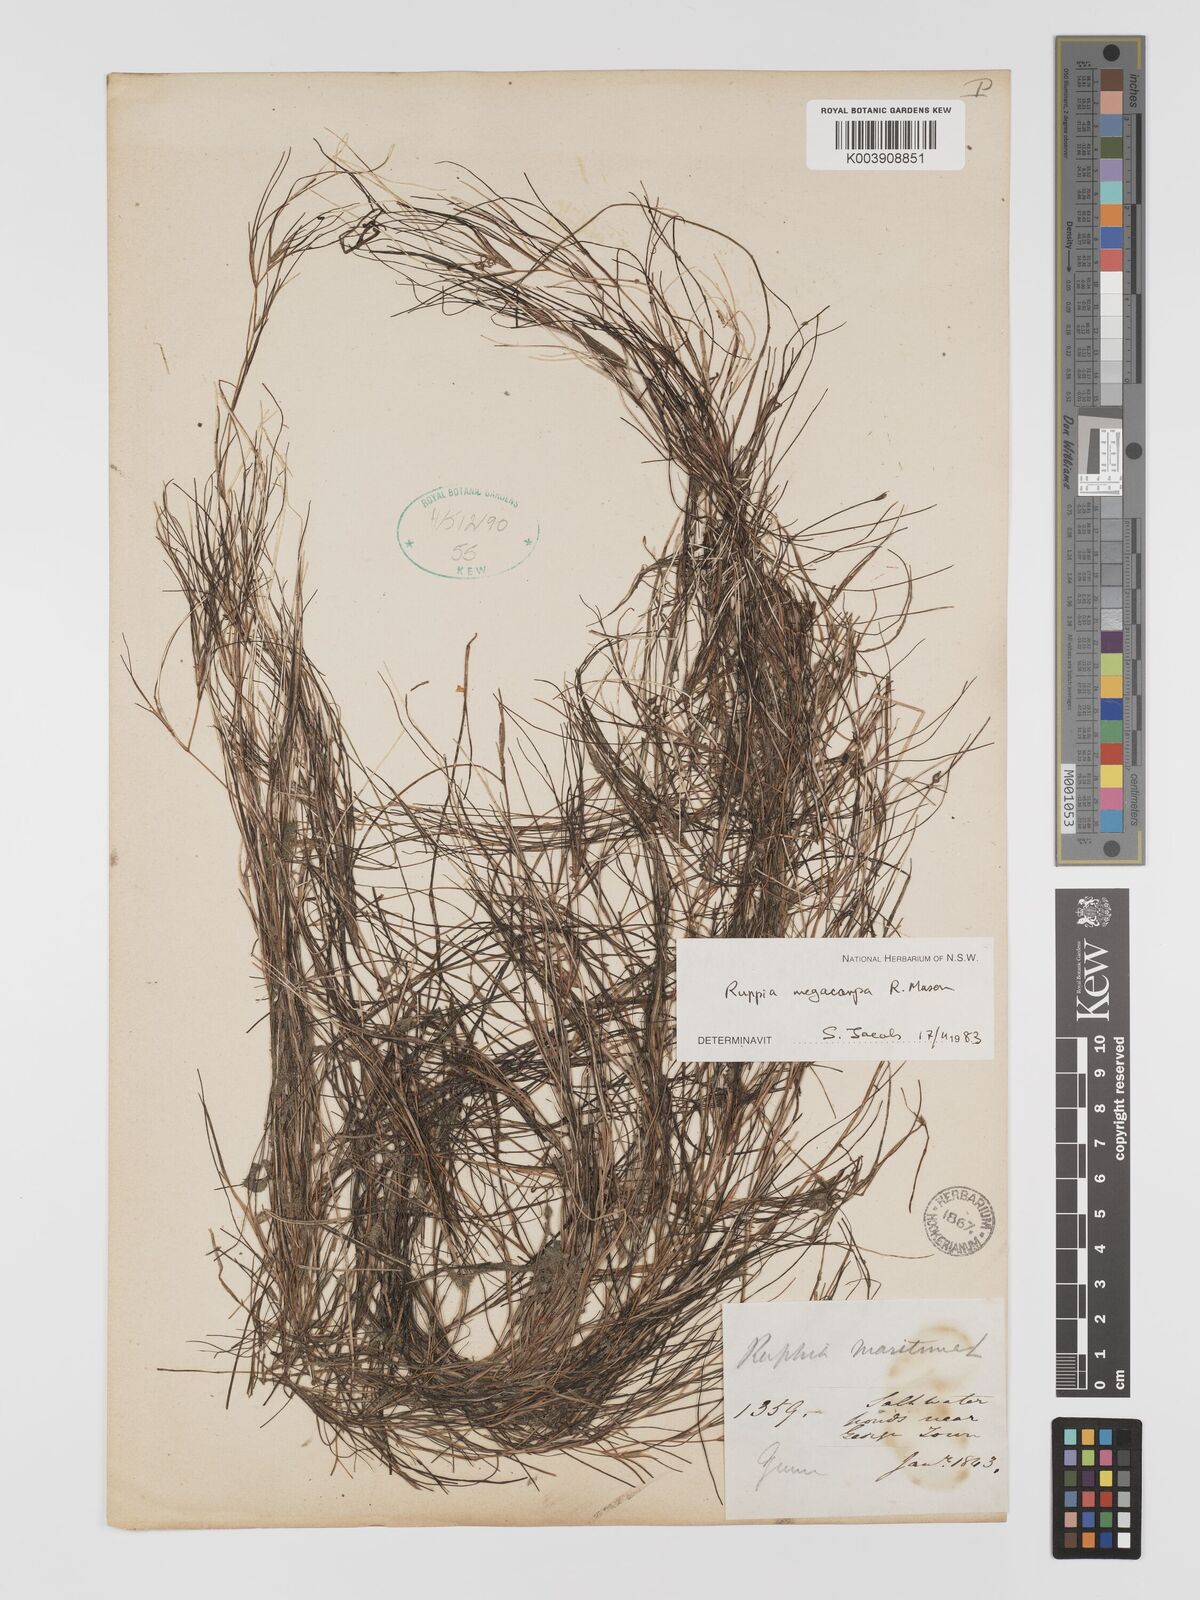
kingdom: Plantae
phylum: Tracheophyta
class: Liliopsida
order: Alismatales
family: Ruppiaceae
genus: Ruppia
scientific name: Ruppia megacarpa
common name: Large-fruit seatassel
